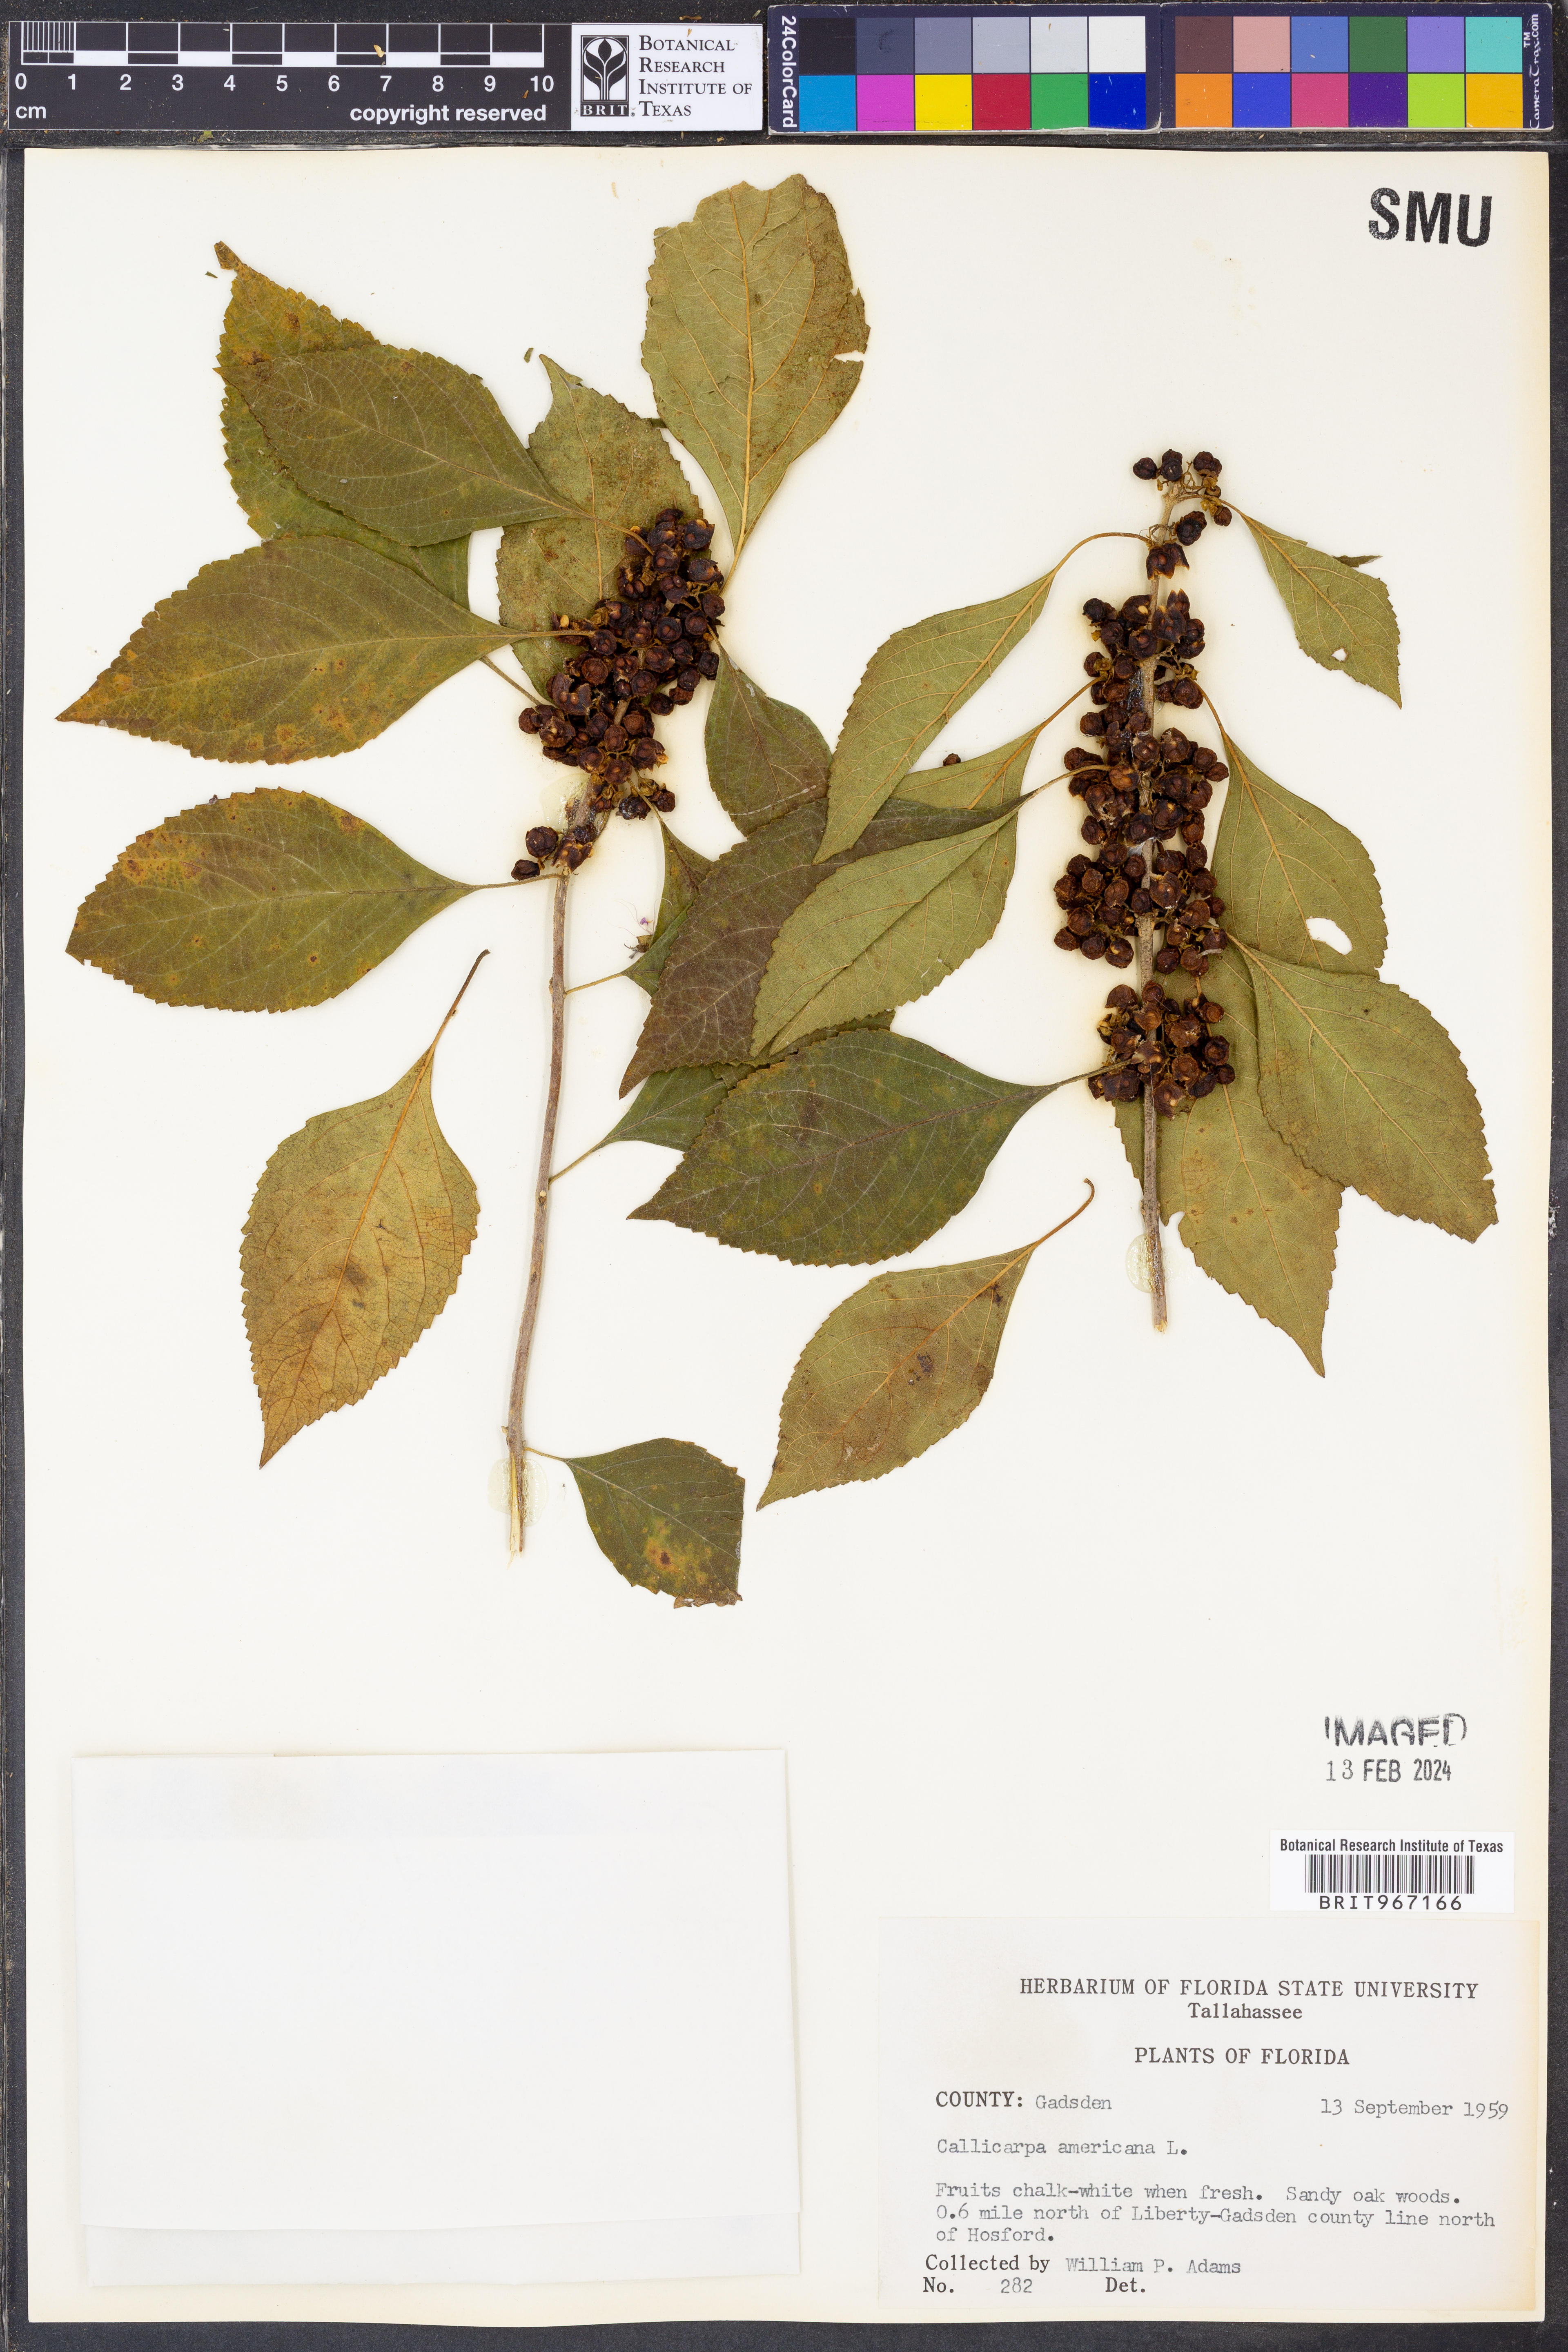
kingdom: Plantae
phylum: Tracheophyta
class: Magnoliopsida
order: Lamiales
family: Lamiaceae
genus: Callicarpa
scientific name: Callicarpa americana
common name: American beautyberry
